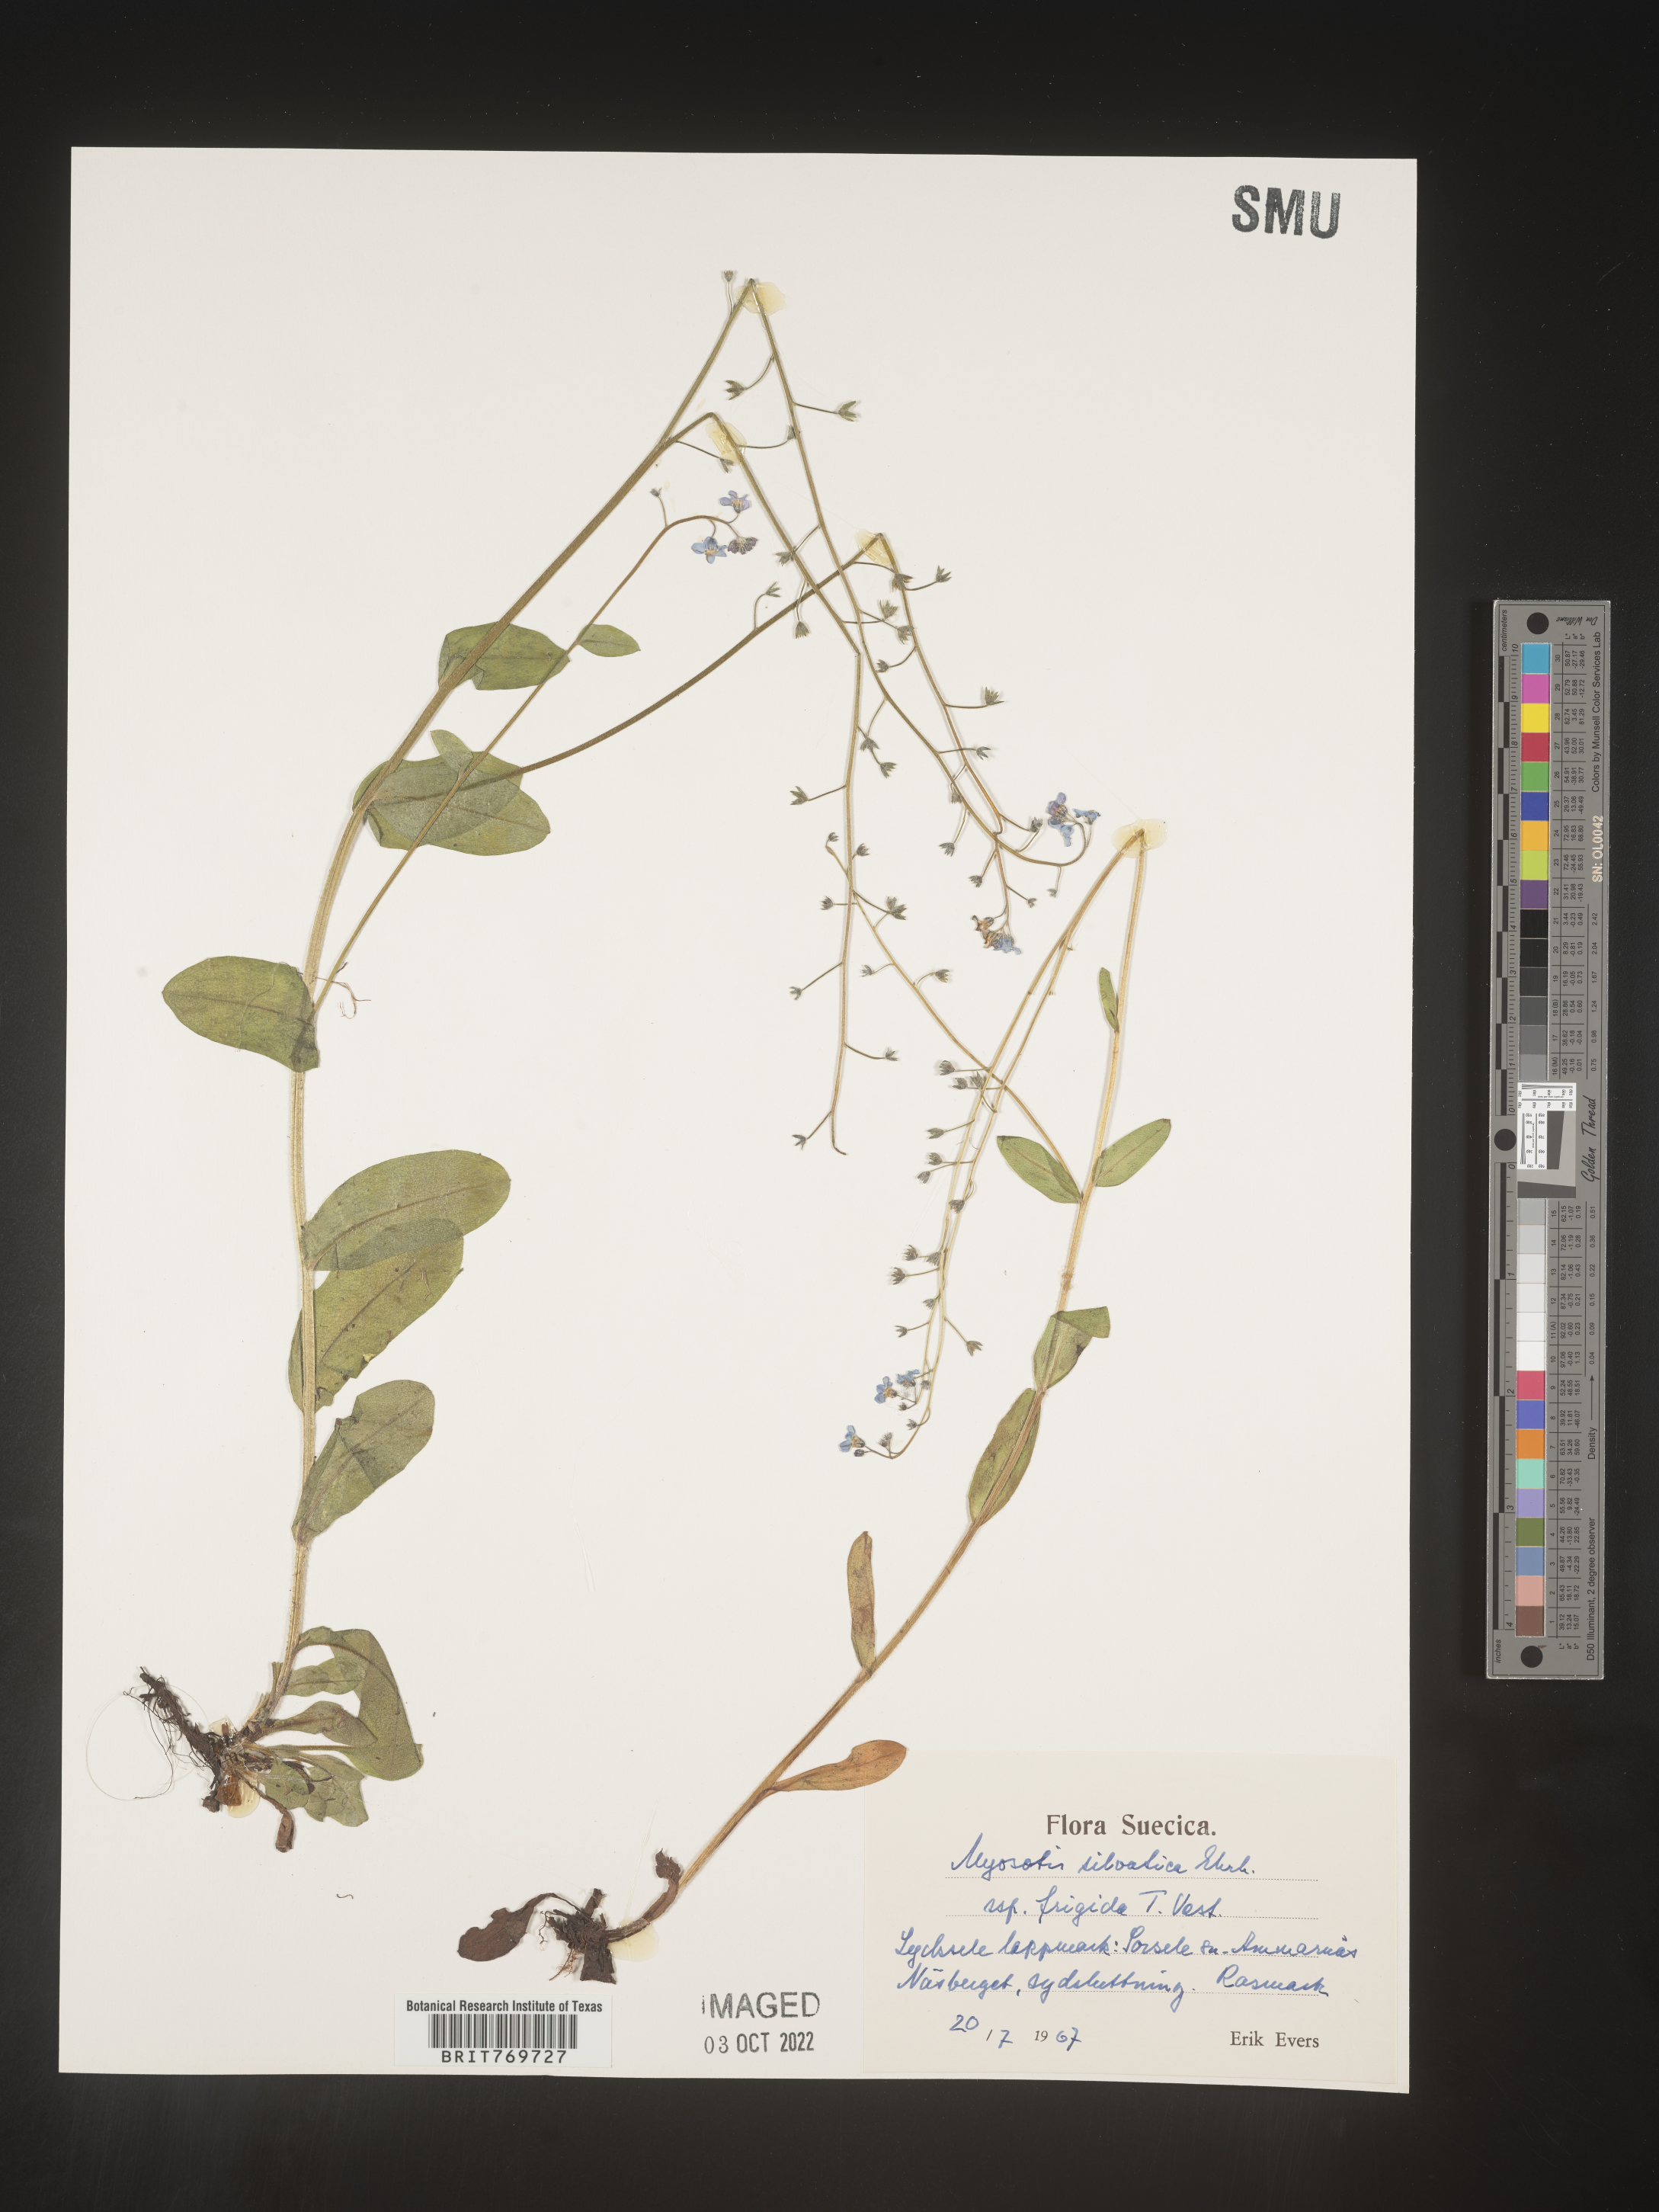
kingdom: Plantae
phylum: Tracheophyta
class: Magnoliopsida
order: Boraginales
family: Boraginaceae
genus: Myosotis
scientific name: Myosotis
